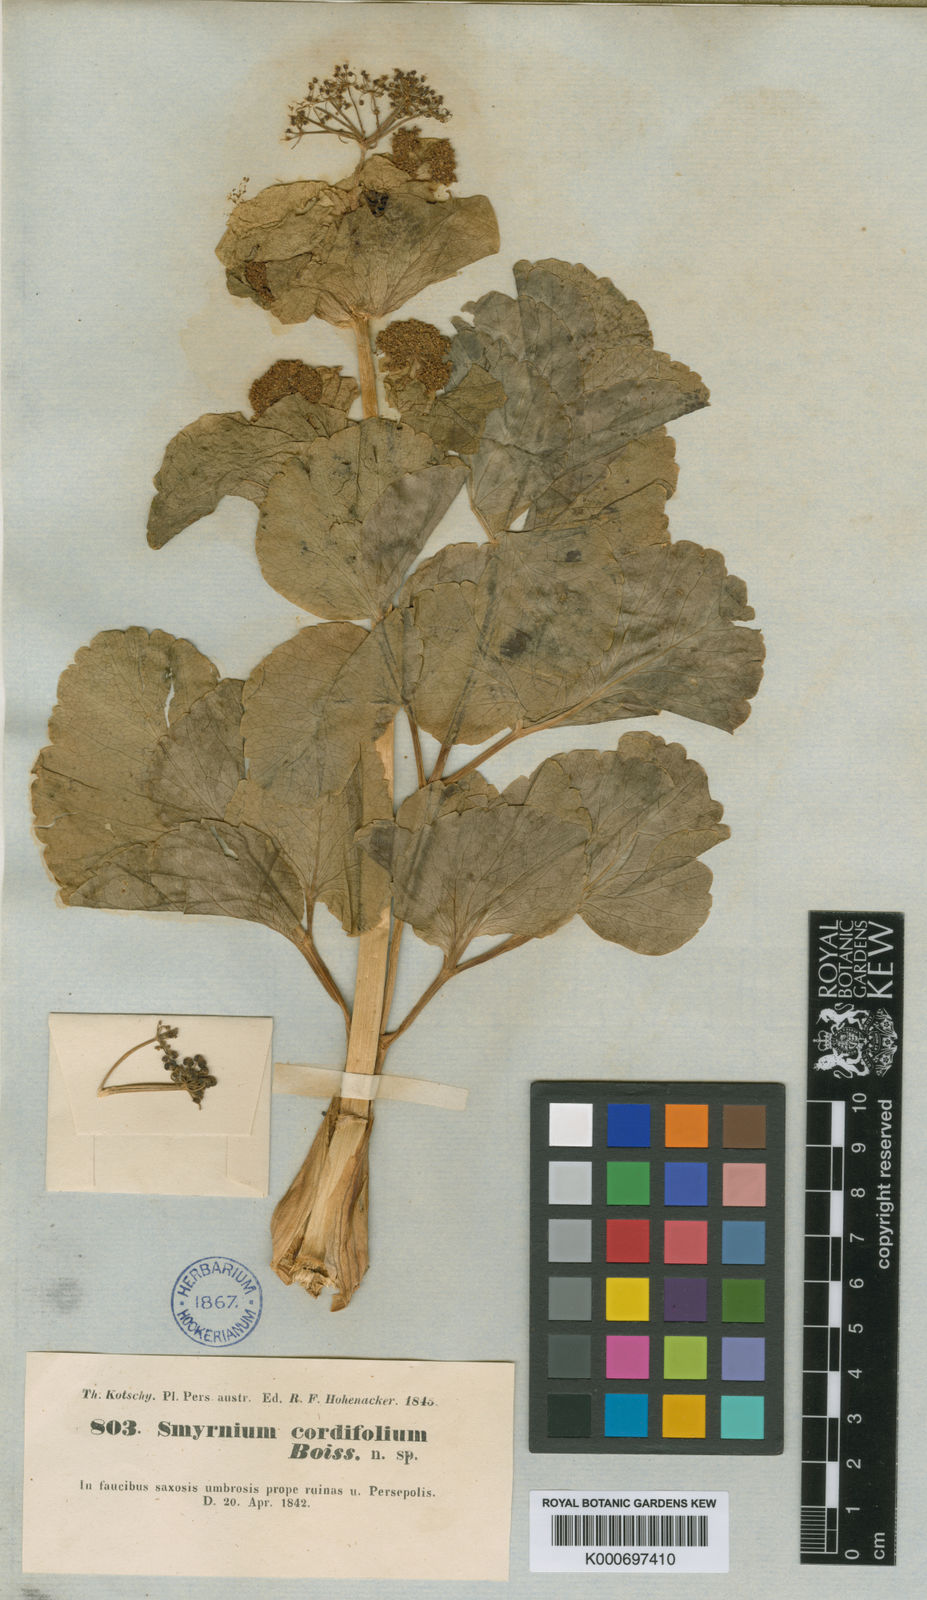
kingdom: Plantae
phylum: Tracheophyta
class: Magnoliopsida
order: Apiales
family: Apiaceae
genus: Smyrnium
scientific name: Smyrnium cordifolium
